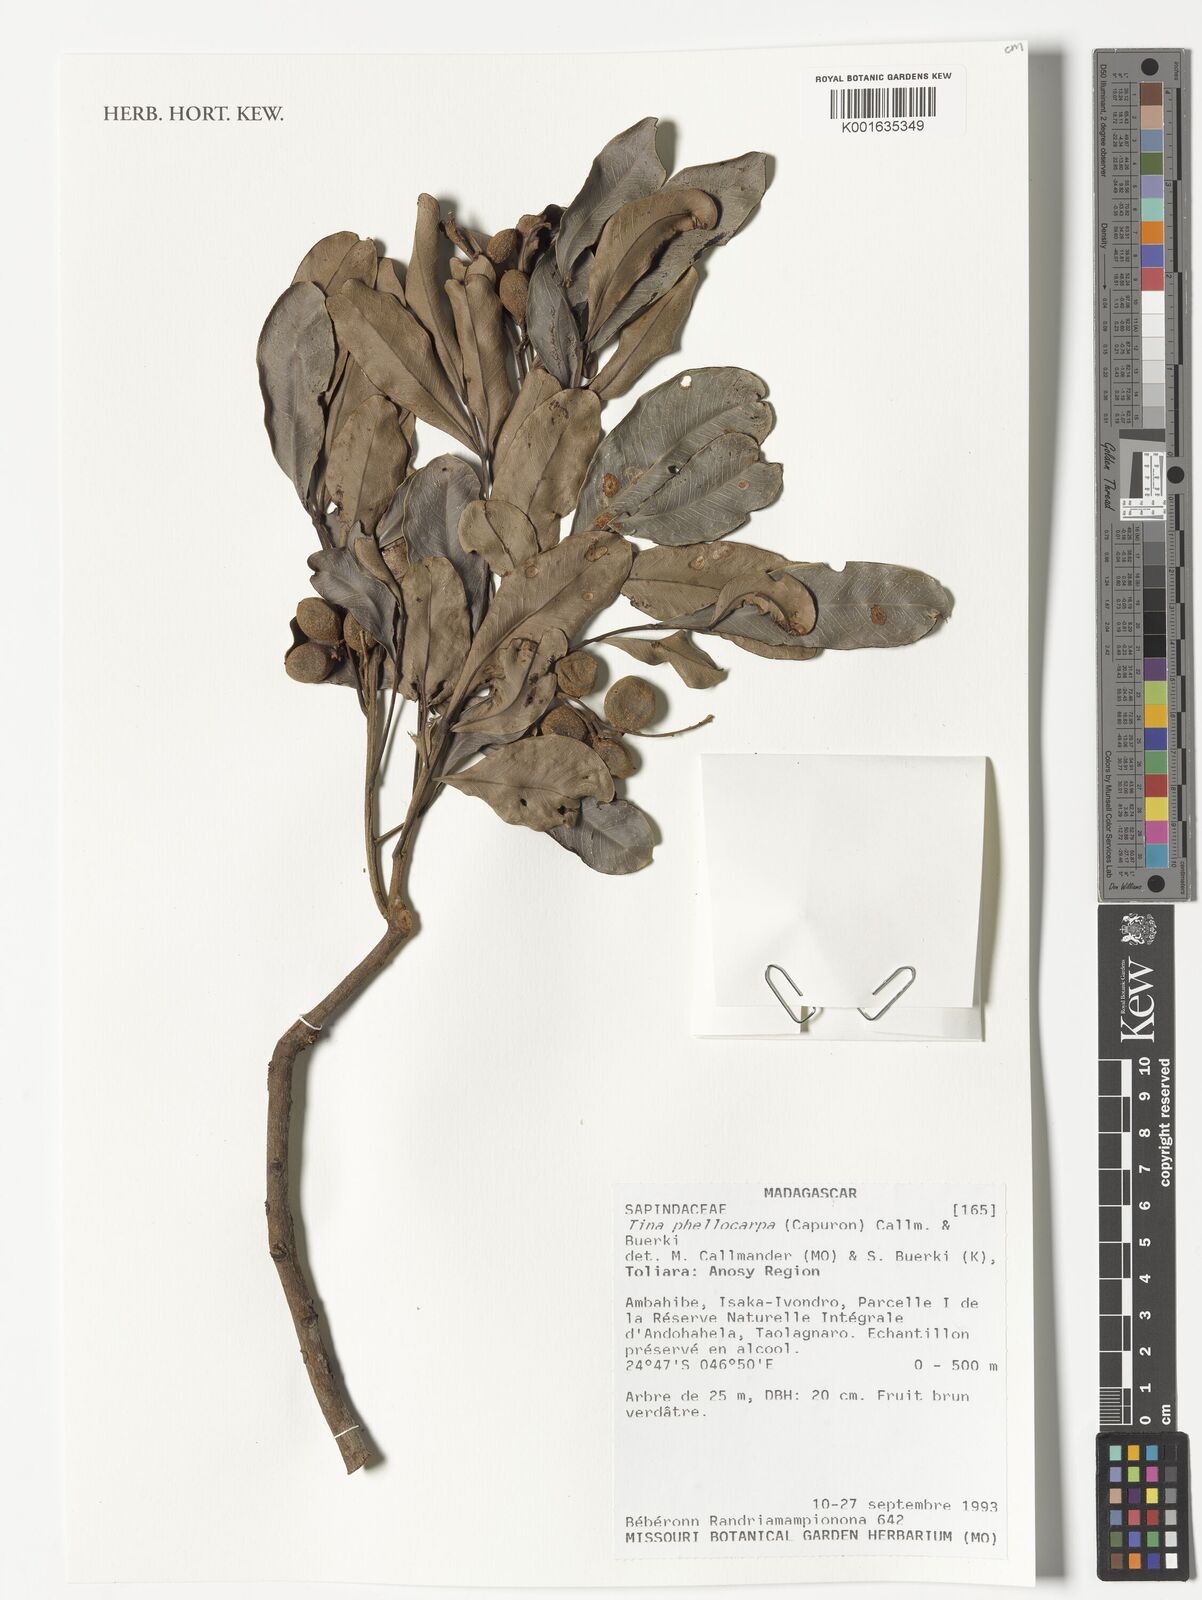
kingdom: Plantae
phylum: Tracheophyta
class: Magnoliopsida
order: Sapindales
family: Sapindaceae
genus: Tina
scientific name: Tina phellocarpa
